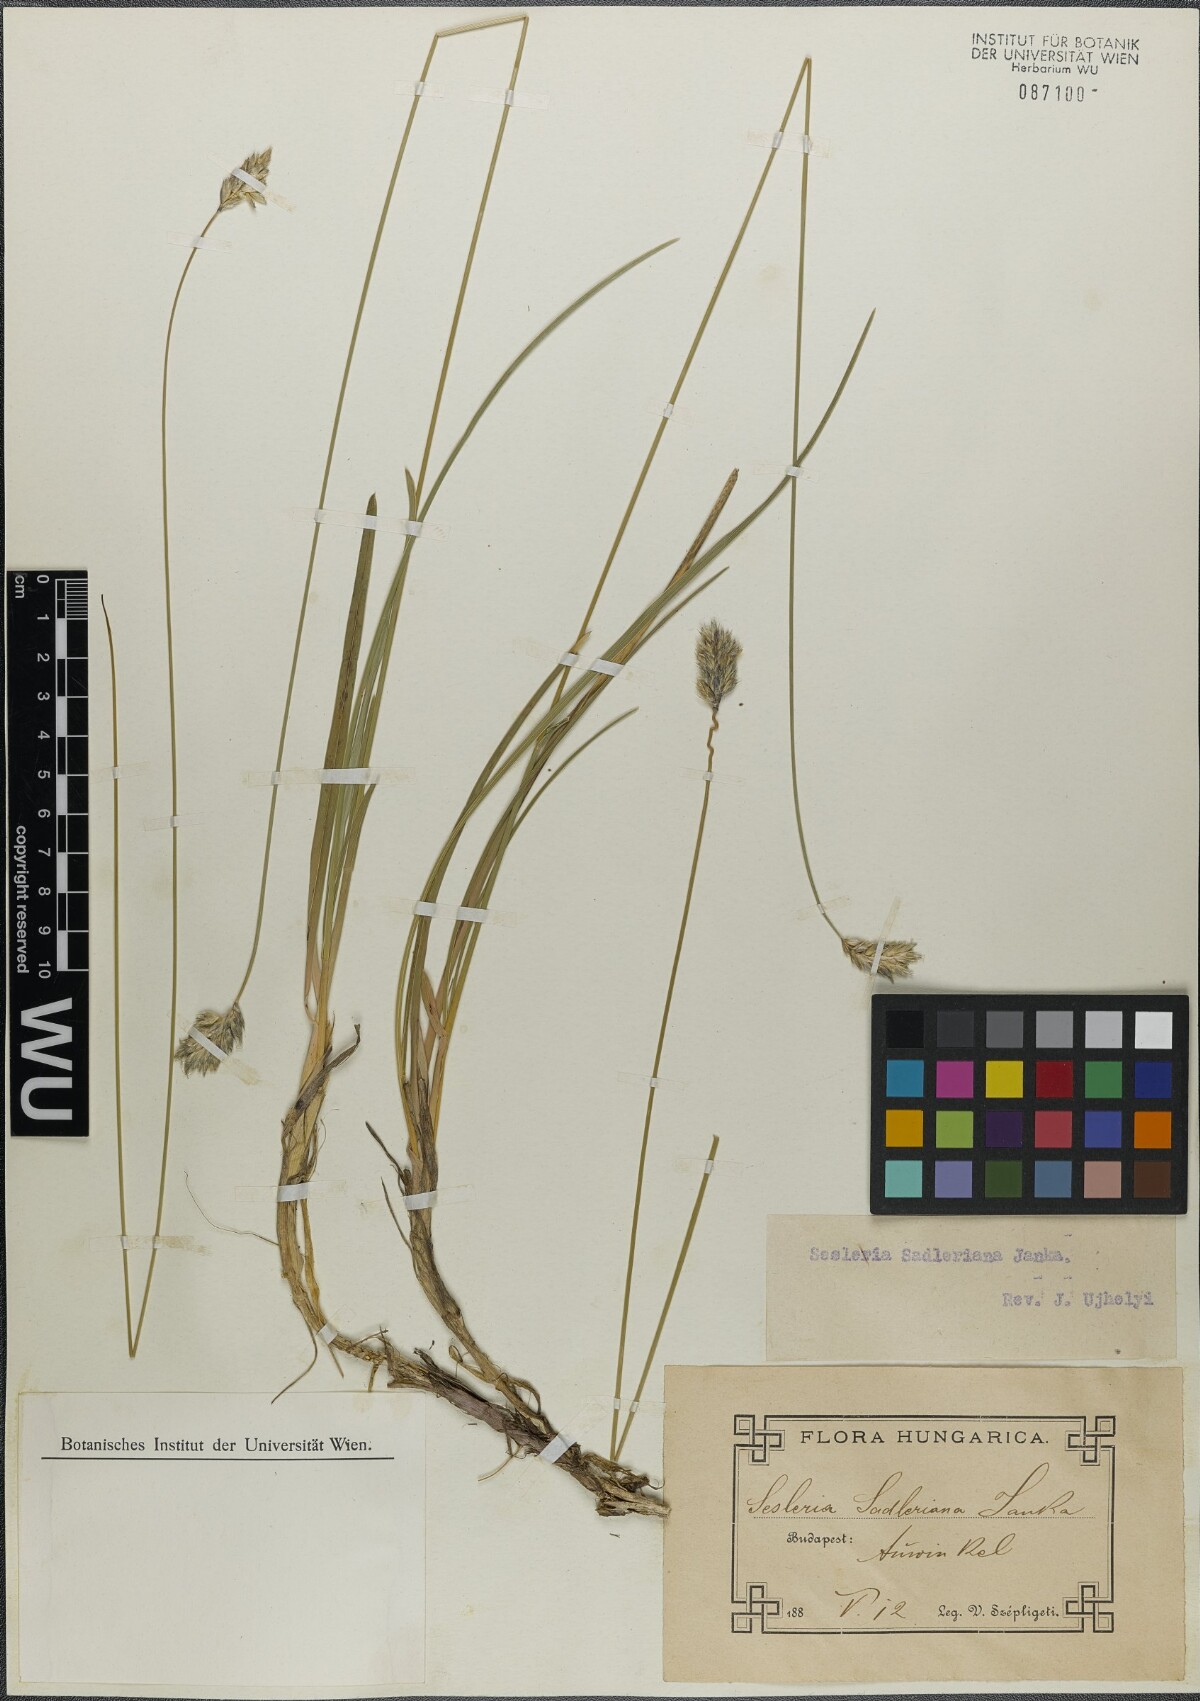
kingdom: Plantae
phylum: Tracheophyta
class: Liliopsida
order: Poales
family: Poaceae
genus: Sesleria
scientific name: Sesleria sadleriana
